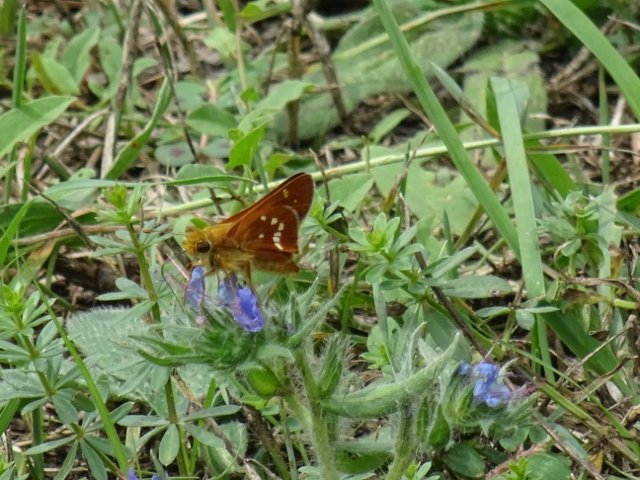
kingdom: Animalia
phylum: Arthropoda
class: Insecta
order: Lepidoptera
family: Hesperiidae
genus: Hesperia
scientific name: Hesperia leonardus
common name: Leonard's Skipper
